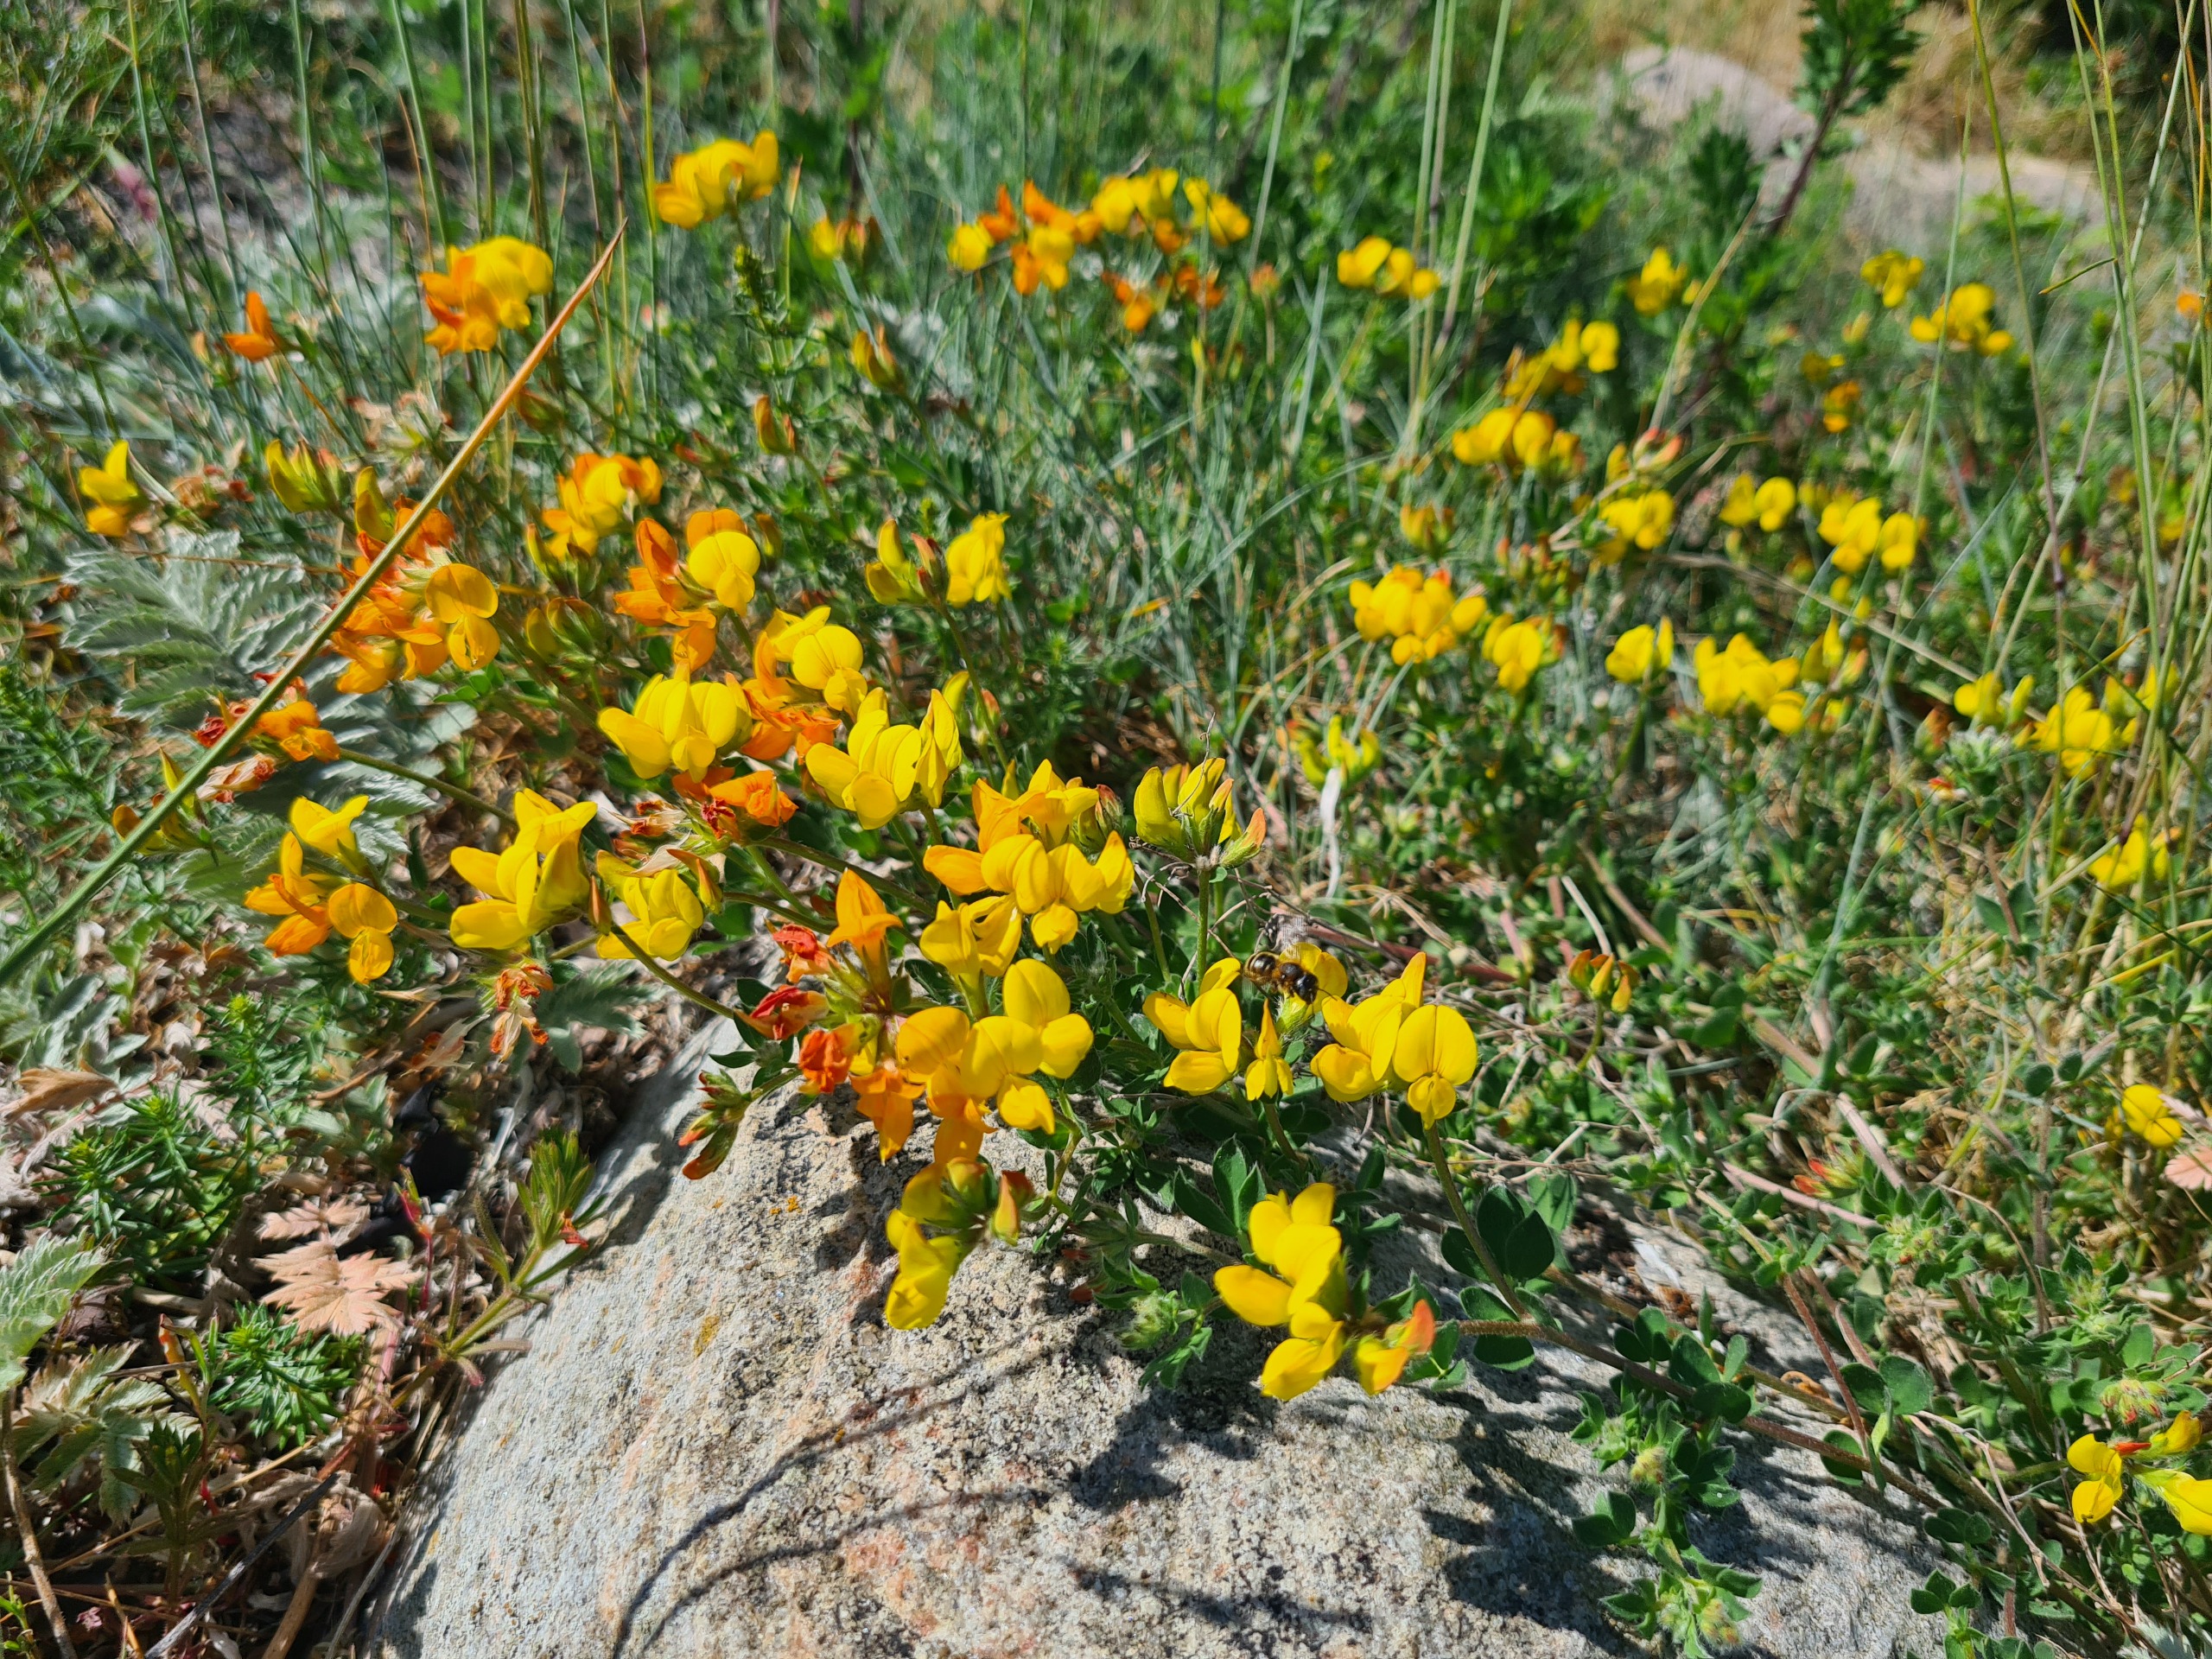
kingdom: Plantae
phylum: Tracheophyta
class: Magnoliopsida
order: Fabales
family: Fabaceae
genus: Lotus
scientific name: Lotus corniculatus
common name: Almindelig kællingetand
